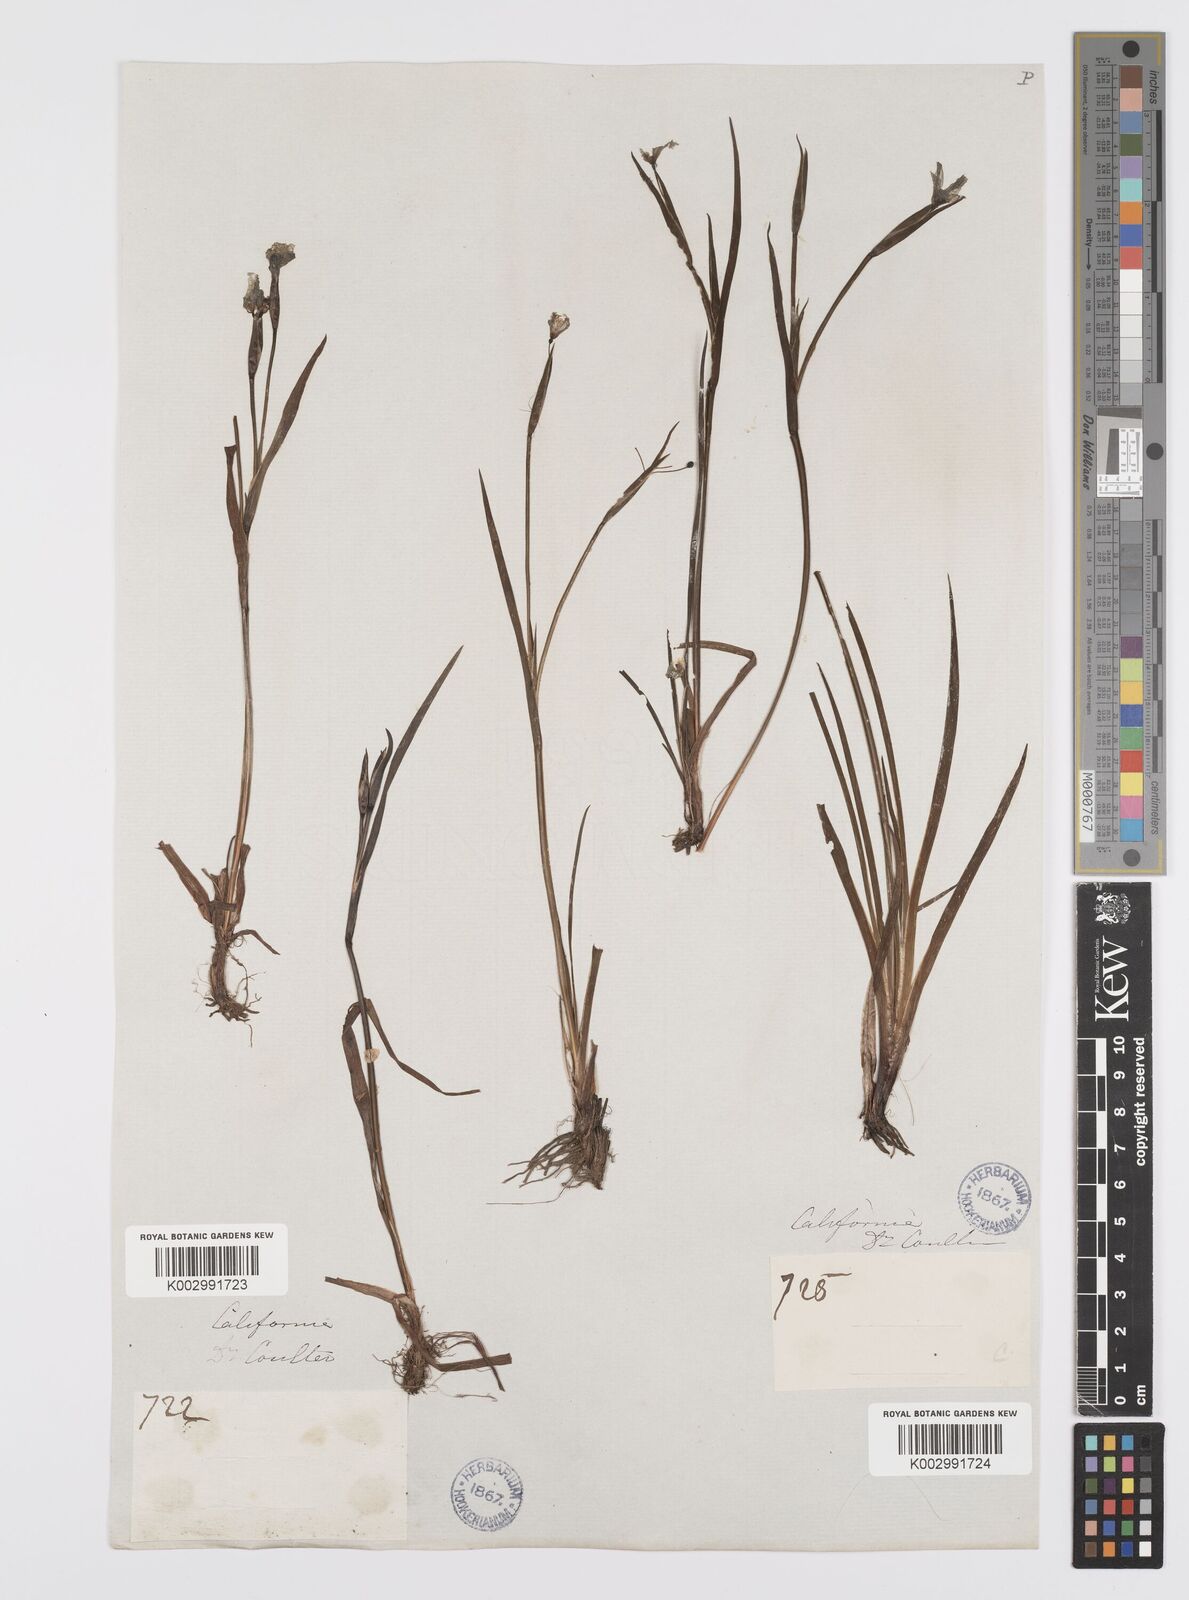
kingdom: Plantae
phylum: Tracheophyta
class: Liliopsida
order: Asparagales
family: Iridaceae
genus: Sisyrinchium
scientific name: Sisyrinchium bellum
